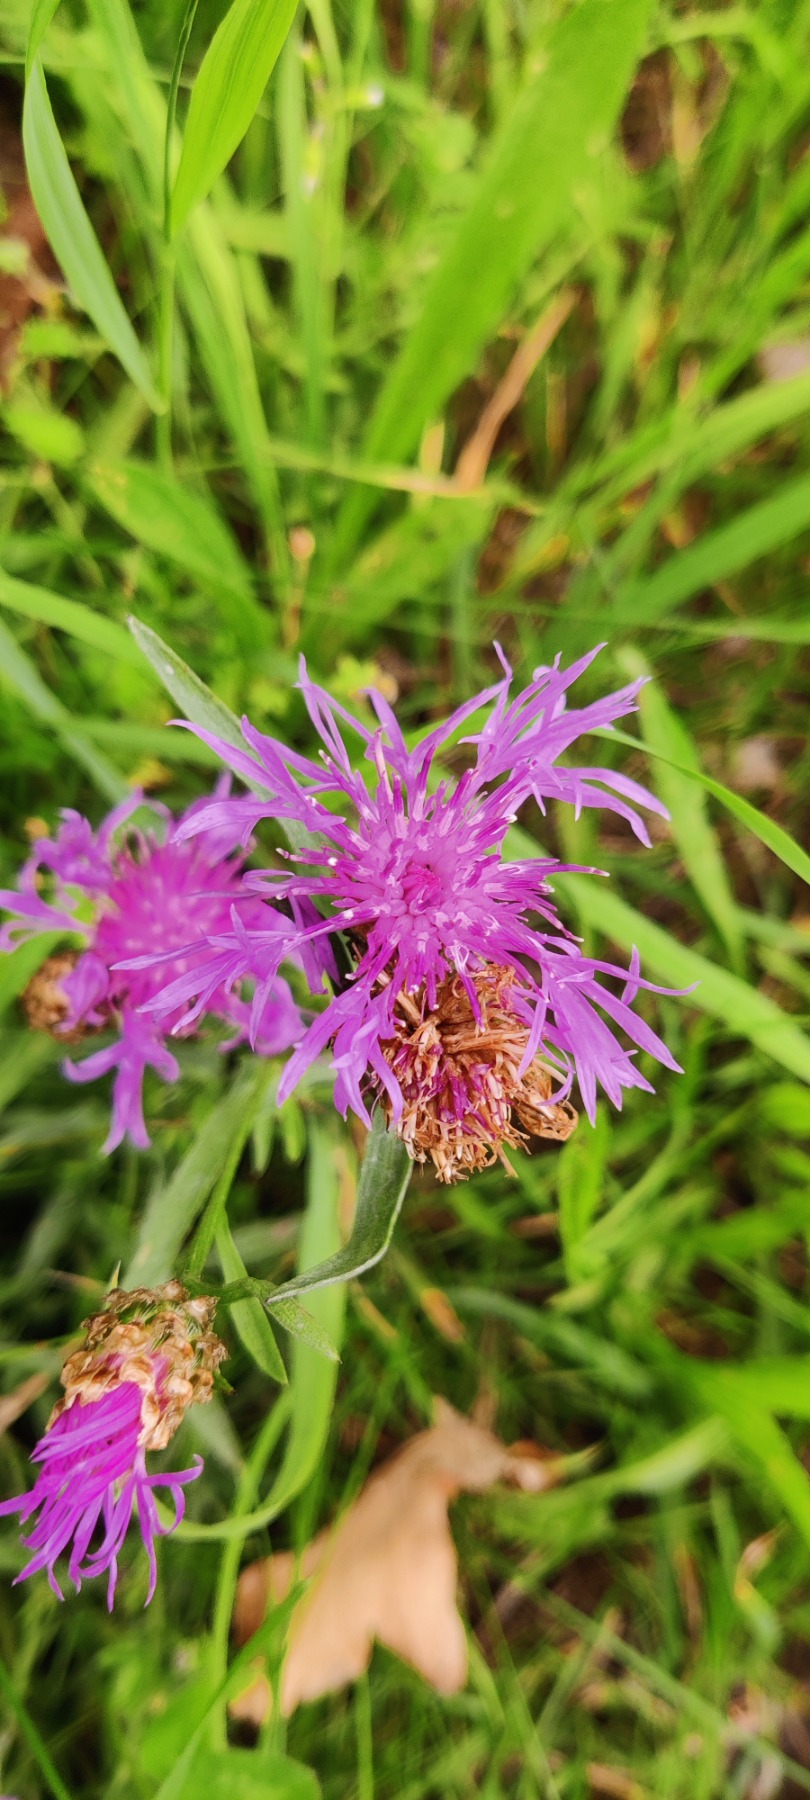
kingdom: Plantae
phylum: Tracheophyta
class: Magnoliopsida
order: Asterales
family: Asteraceae
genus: Centaurea
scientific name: Centaurea jacea
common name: Almindelig knopurt
